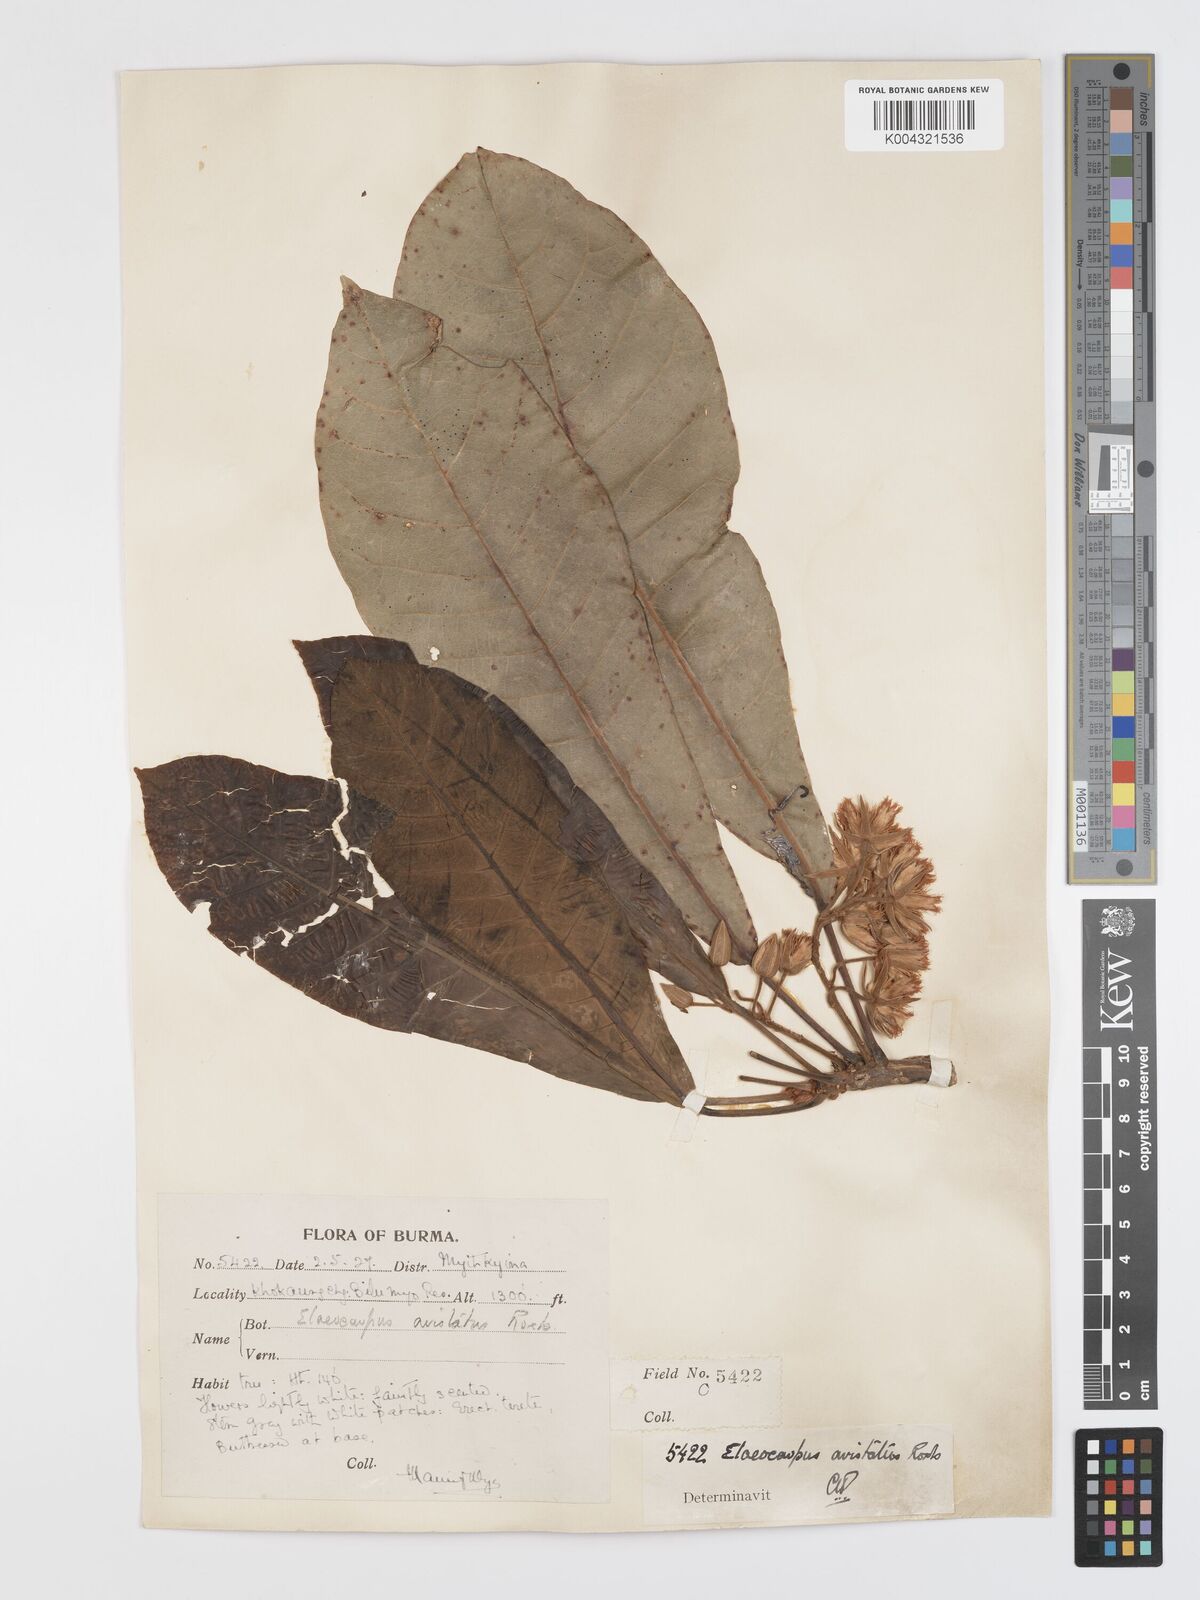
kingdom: Plantae
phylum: Tracheophyta
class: Magnoliopsida
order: Oxalidales
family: Elaeocarpaceae
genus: Elaeocarpus
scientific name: Elaeocarpus aristatus
